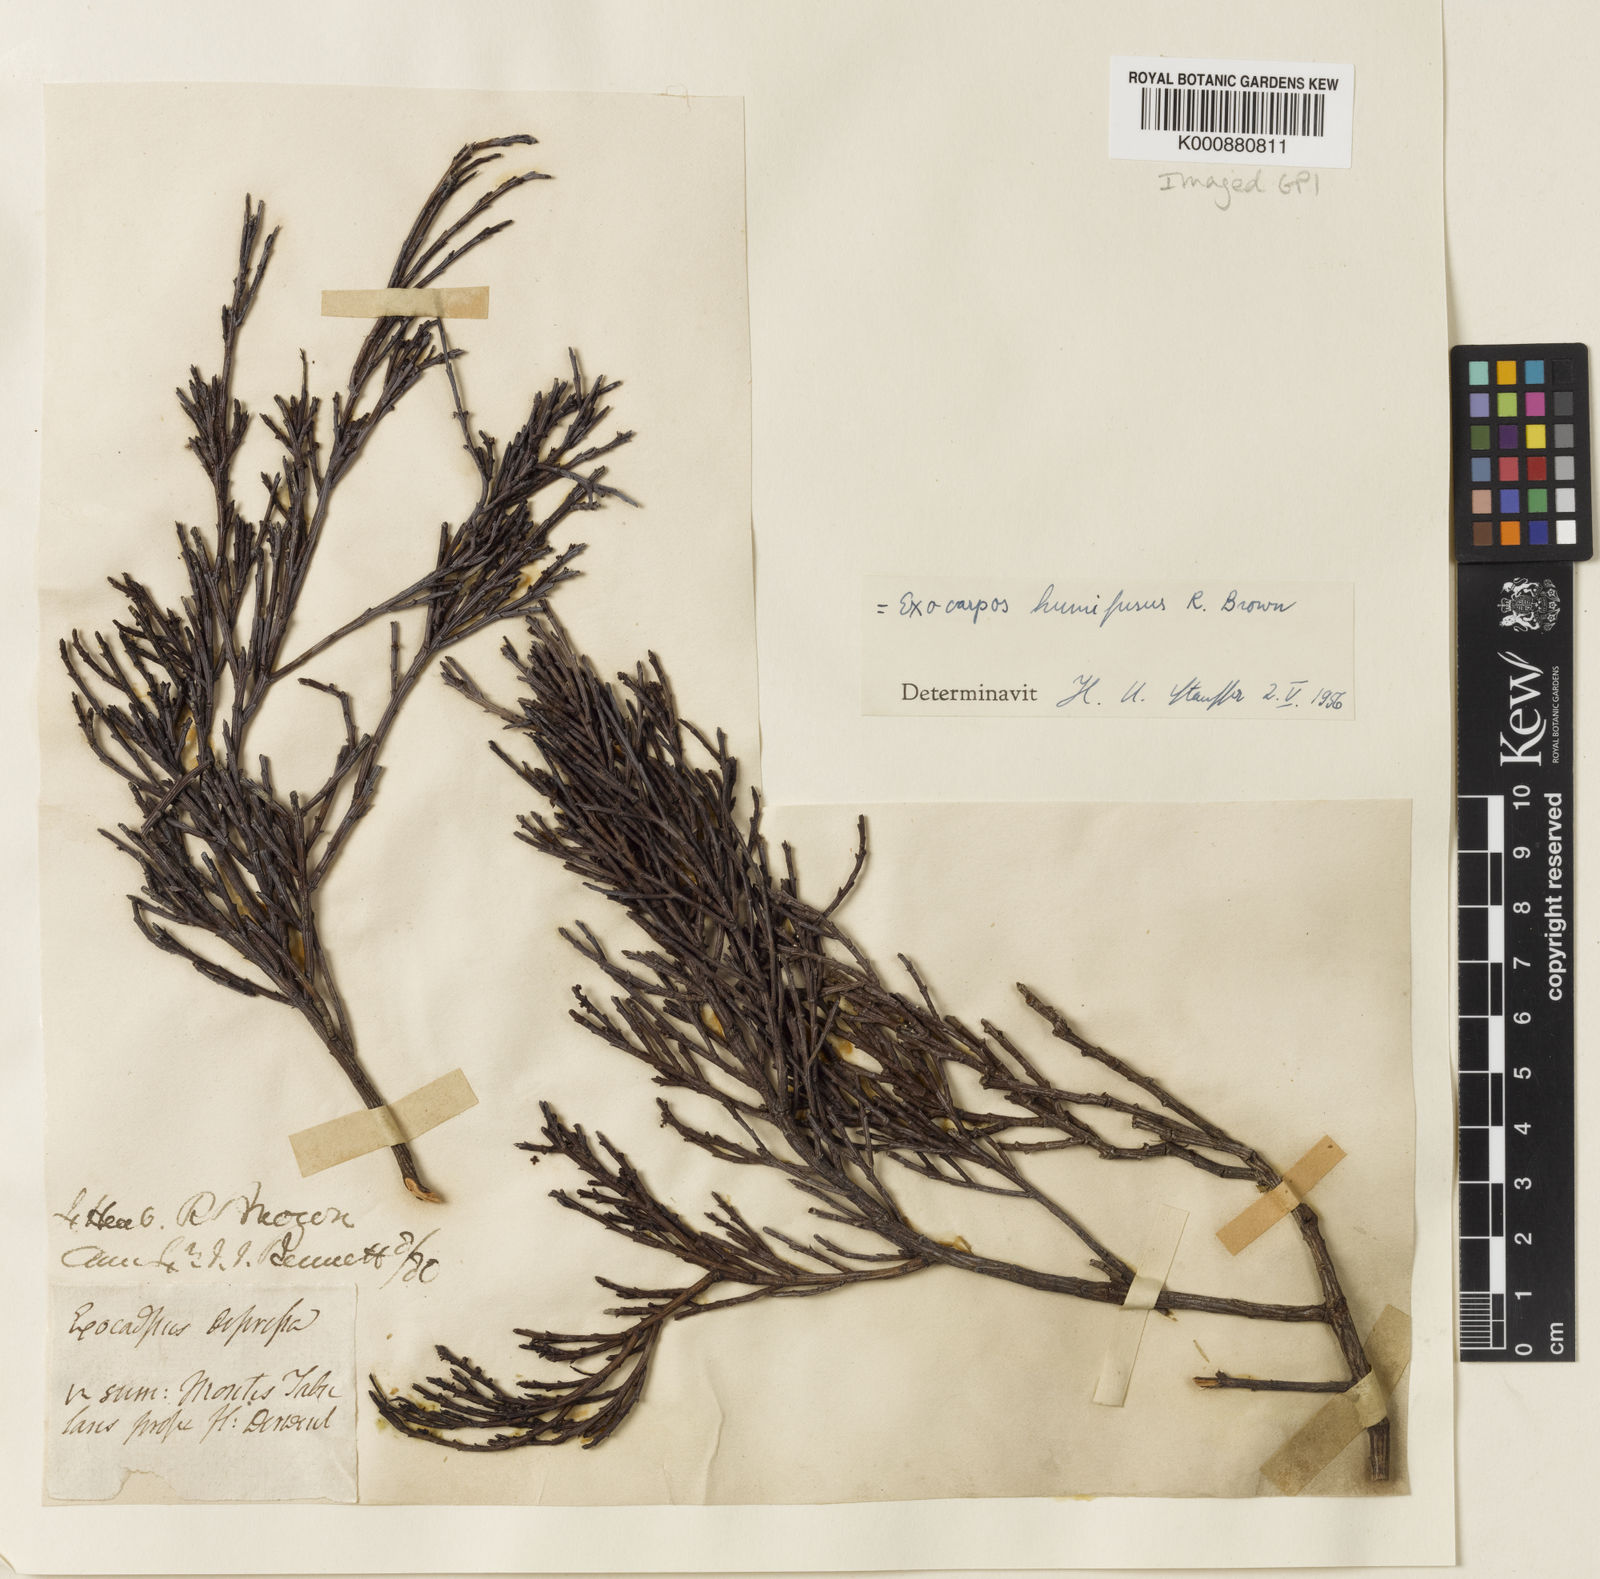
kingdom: Plantae
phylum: Tracheophyta
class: Magnoliopsida
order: Santalales
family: Santalaceae
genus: Exocarpos
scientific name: Exocarpos humifusus
